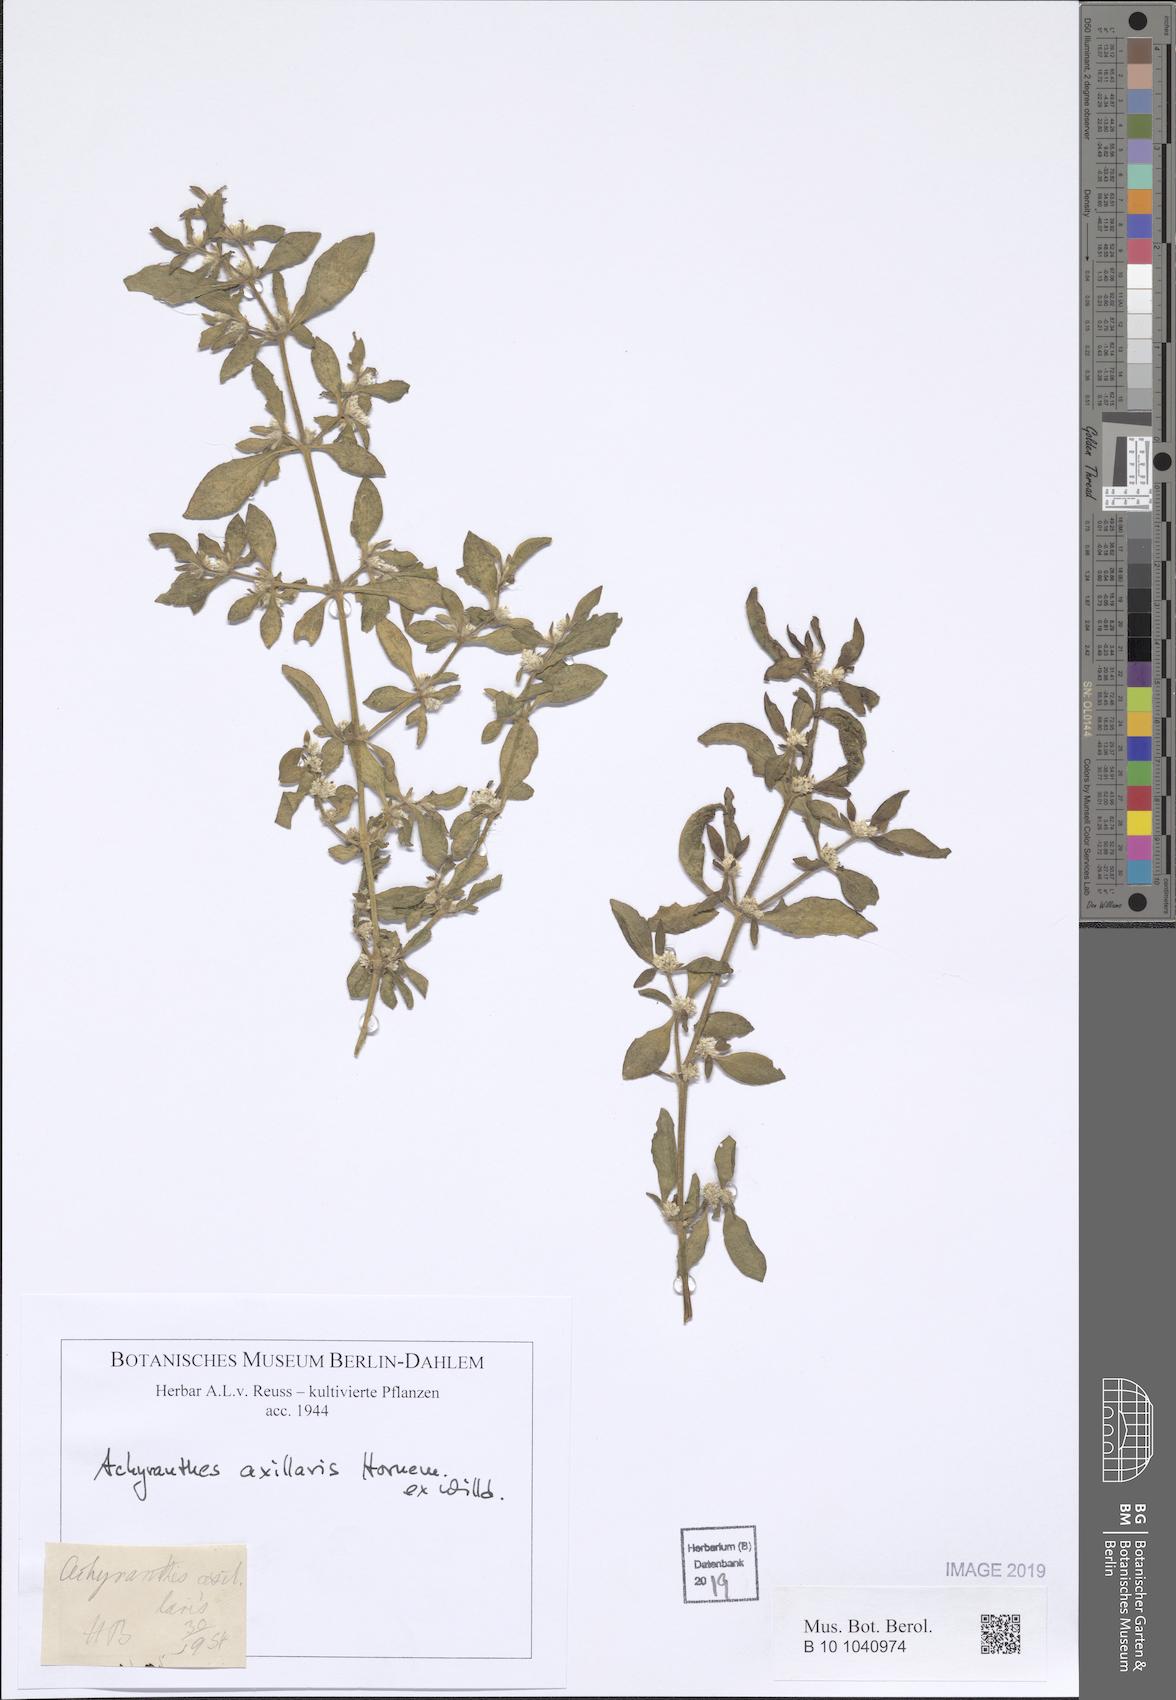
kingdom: Plantae
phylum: Tracheophyta
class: Magnoliopsida
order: Caryophyllales
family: Amaranthaceae
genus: Alternanthera
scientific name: Alternanthera axillaris
